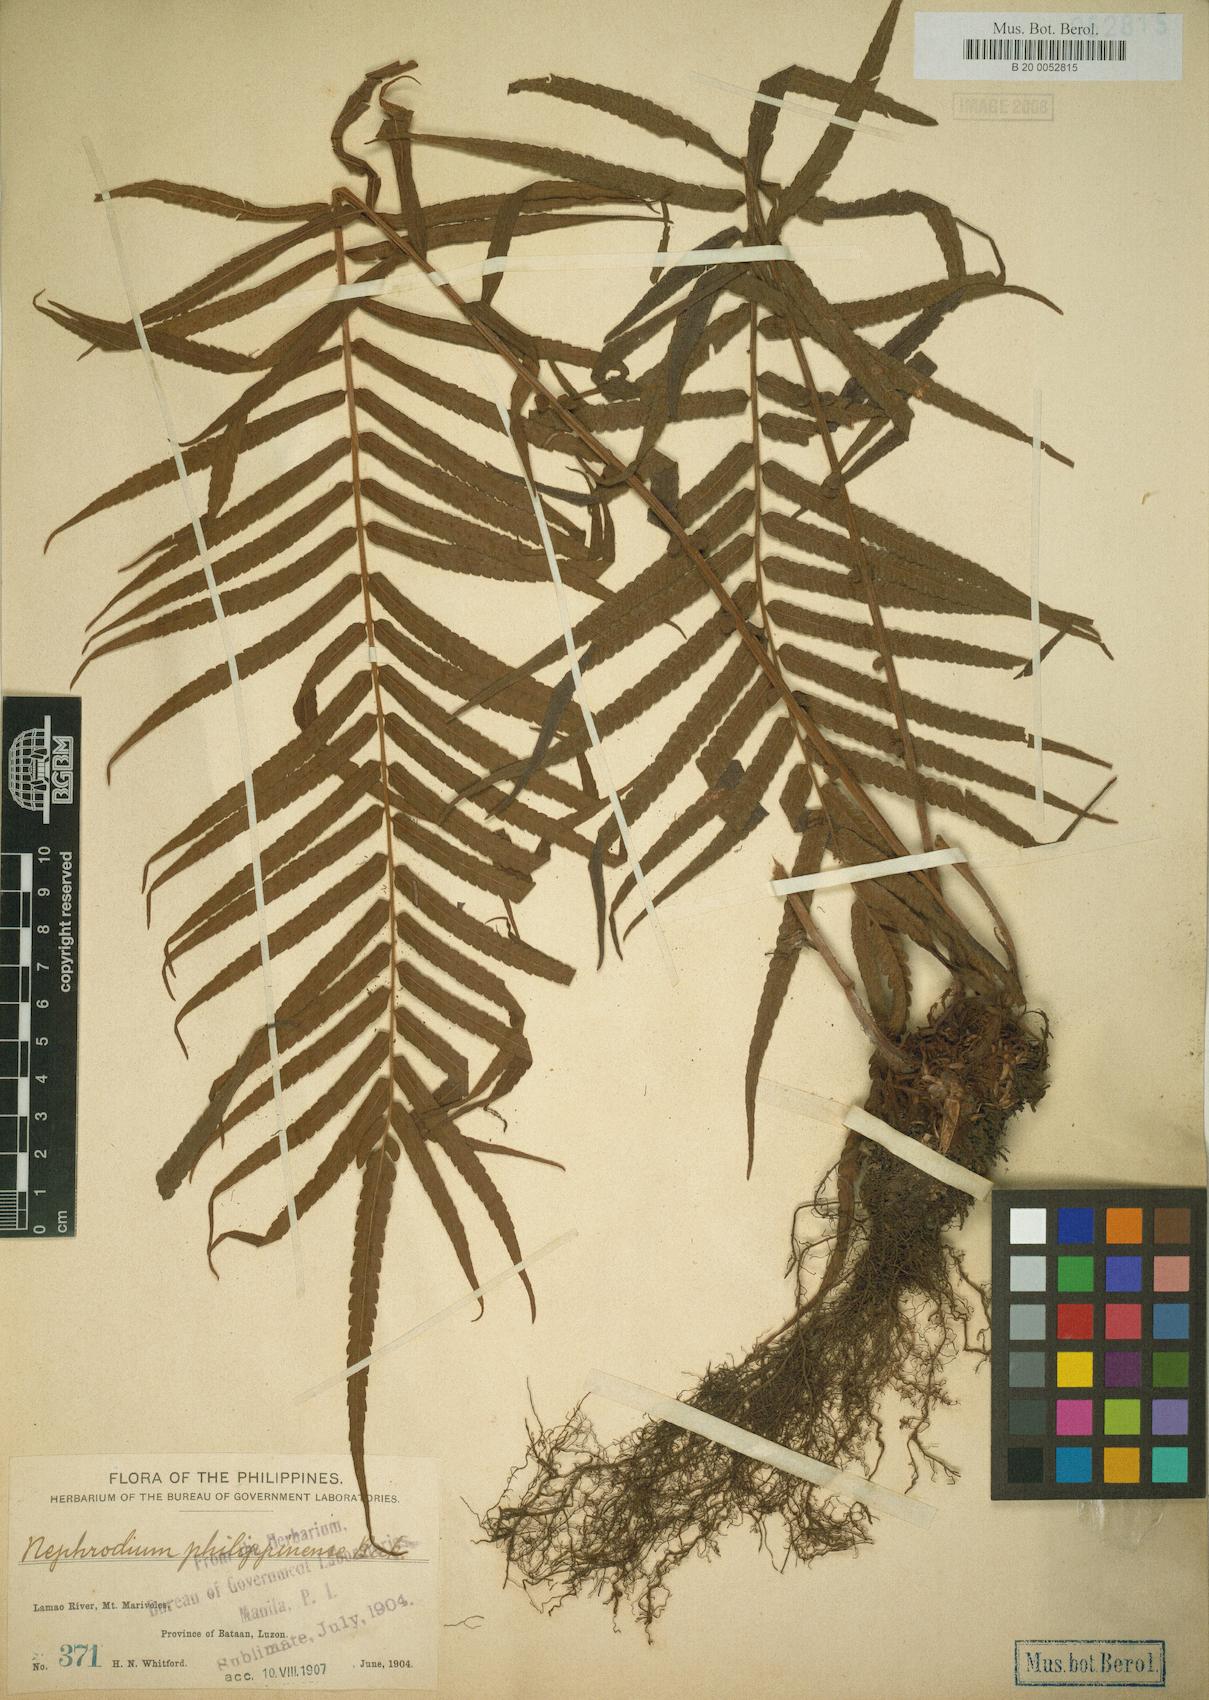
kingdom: Plantae
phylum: Tracheophyta
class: Polypodiopsida
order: Polypodiales
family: Thelypteridaceae
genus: Sphaerostephanos
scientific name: Sphaerostephanos productus
